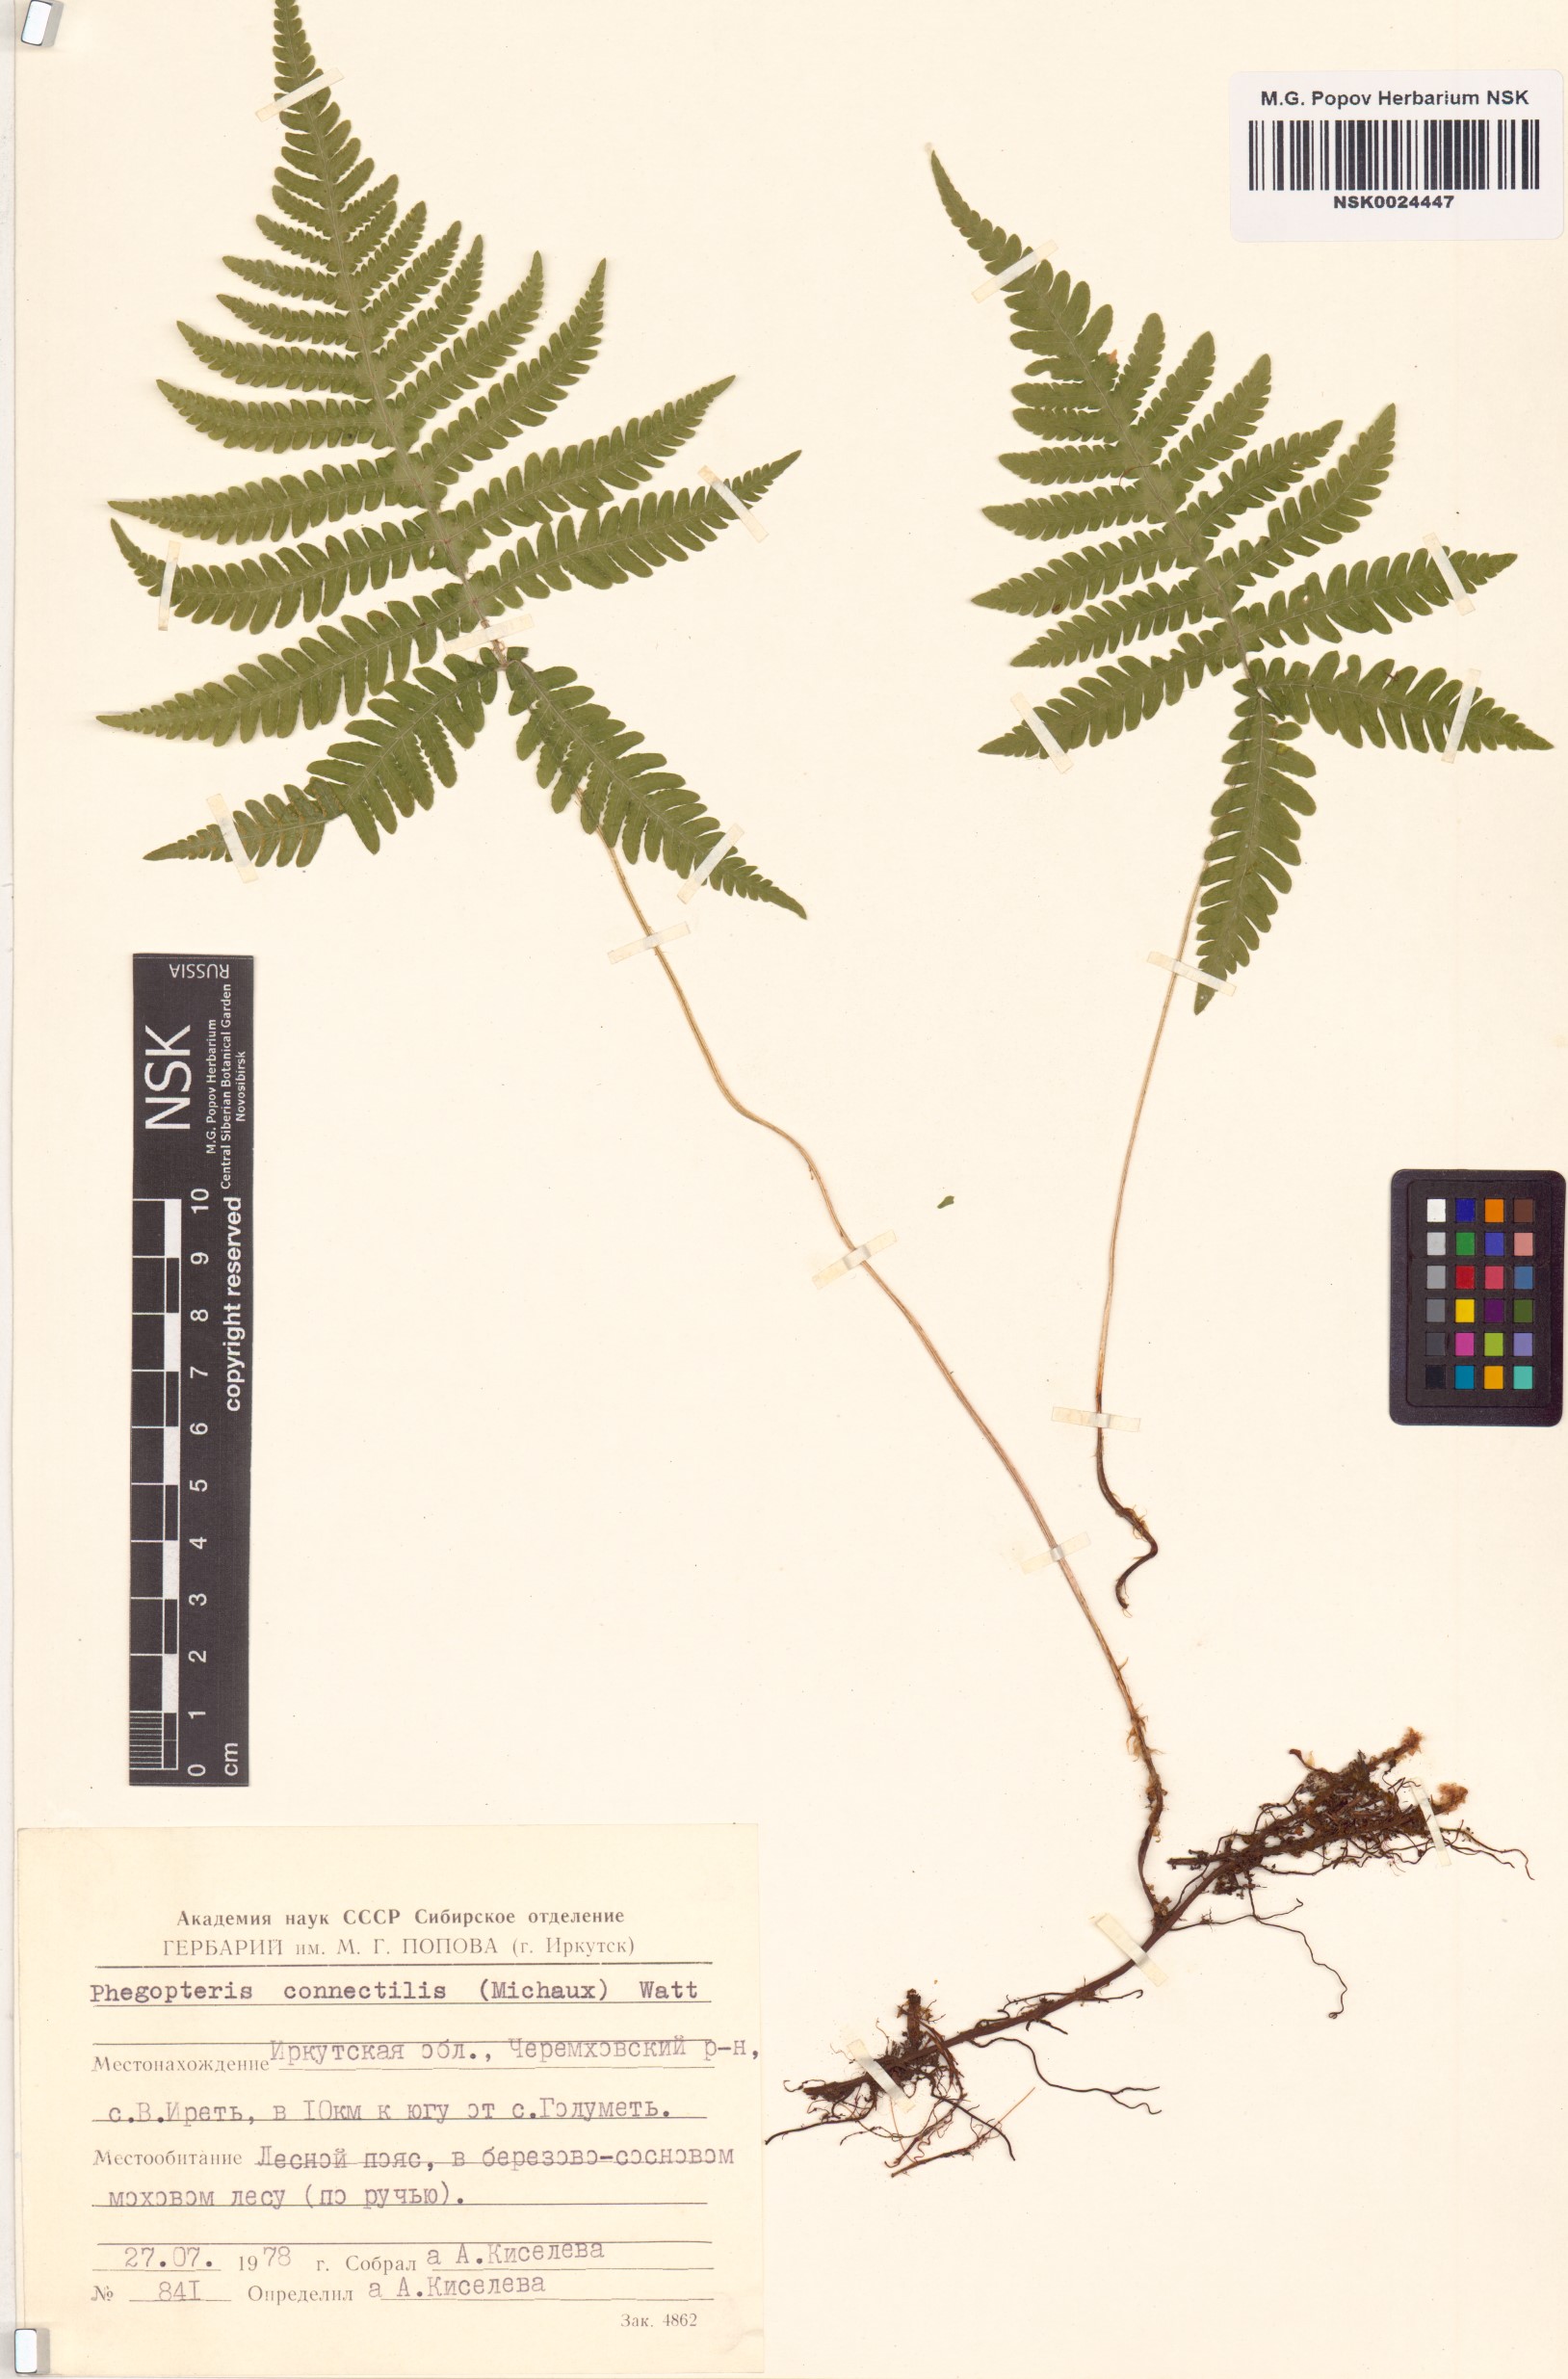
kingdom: Plantae
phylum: Tracheophyta
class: Polypodiopsida
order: Polypodiales
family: Thelypteridaceae
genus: Phegopteris
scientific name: Phegopteris connectilis
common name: Beech fern
